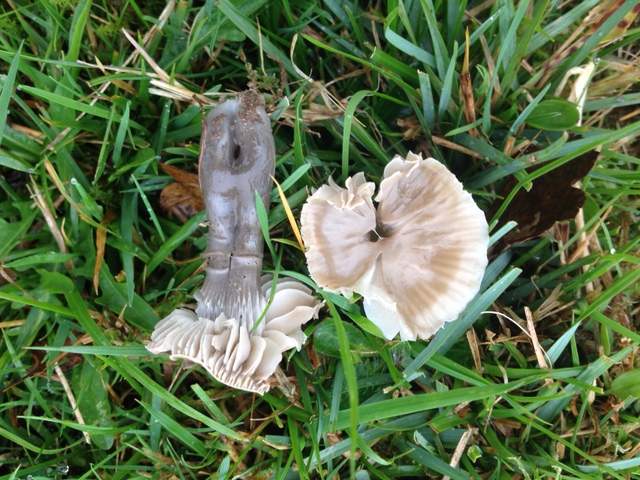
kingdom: Fungi
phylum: Basidiomycota
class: Agaricomycetes
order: Agaricales
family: Hygrophoraceae
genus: Gliophorus
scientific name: Gliophorus irrigatus
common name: slimet vokshat
